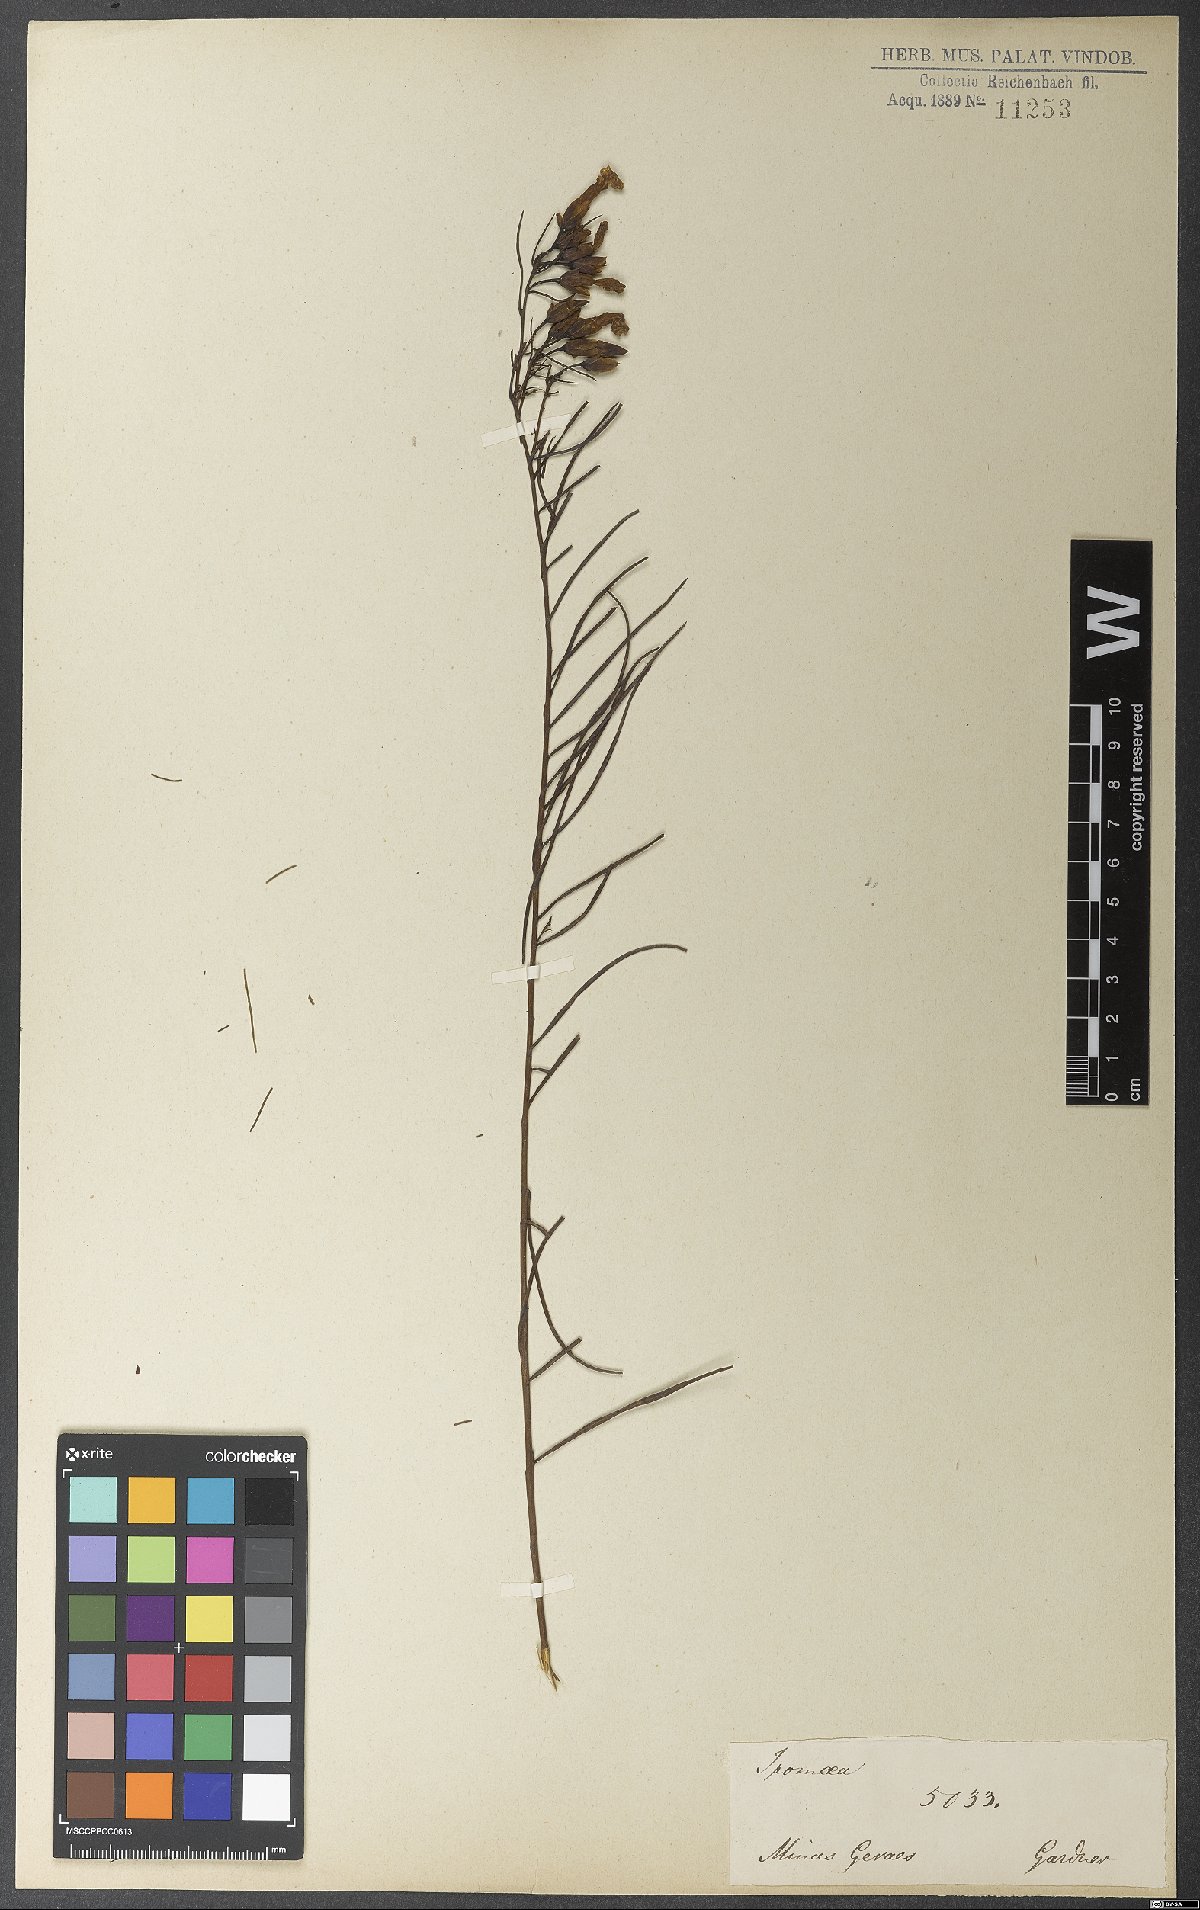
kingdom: Plantae
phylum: Tracheophyta
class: Magnoliopsida
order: Solanales
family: Convolvulaceae
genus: Ipomoea
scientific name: Ipomoea pinifolia
